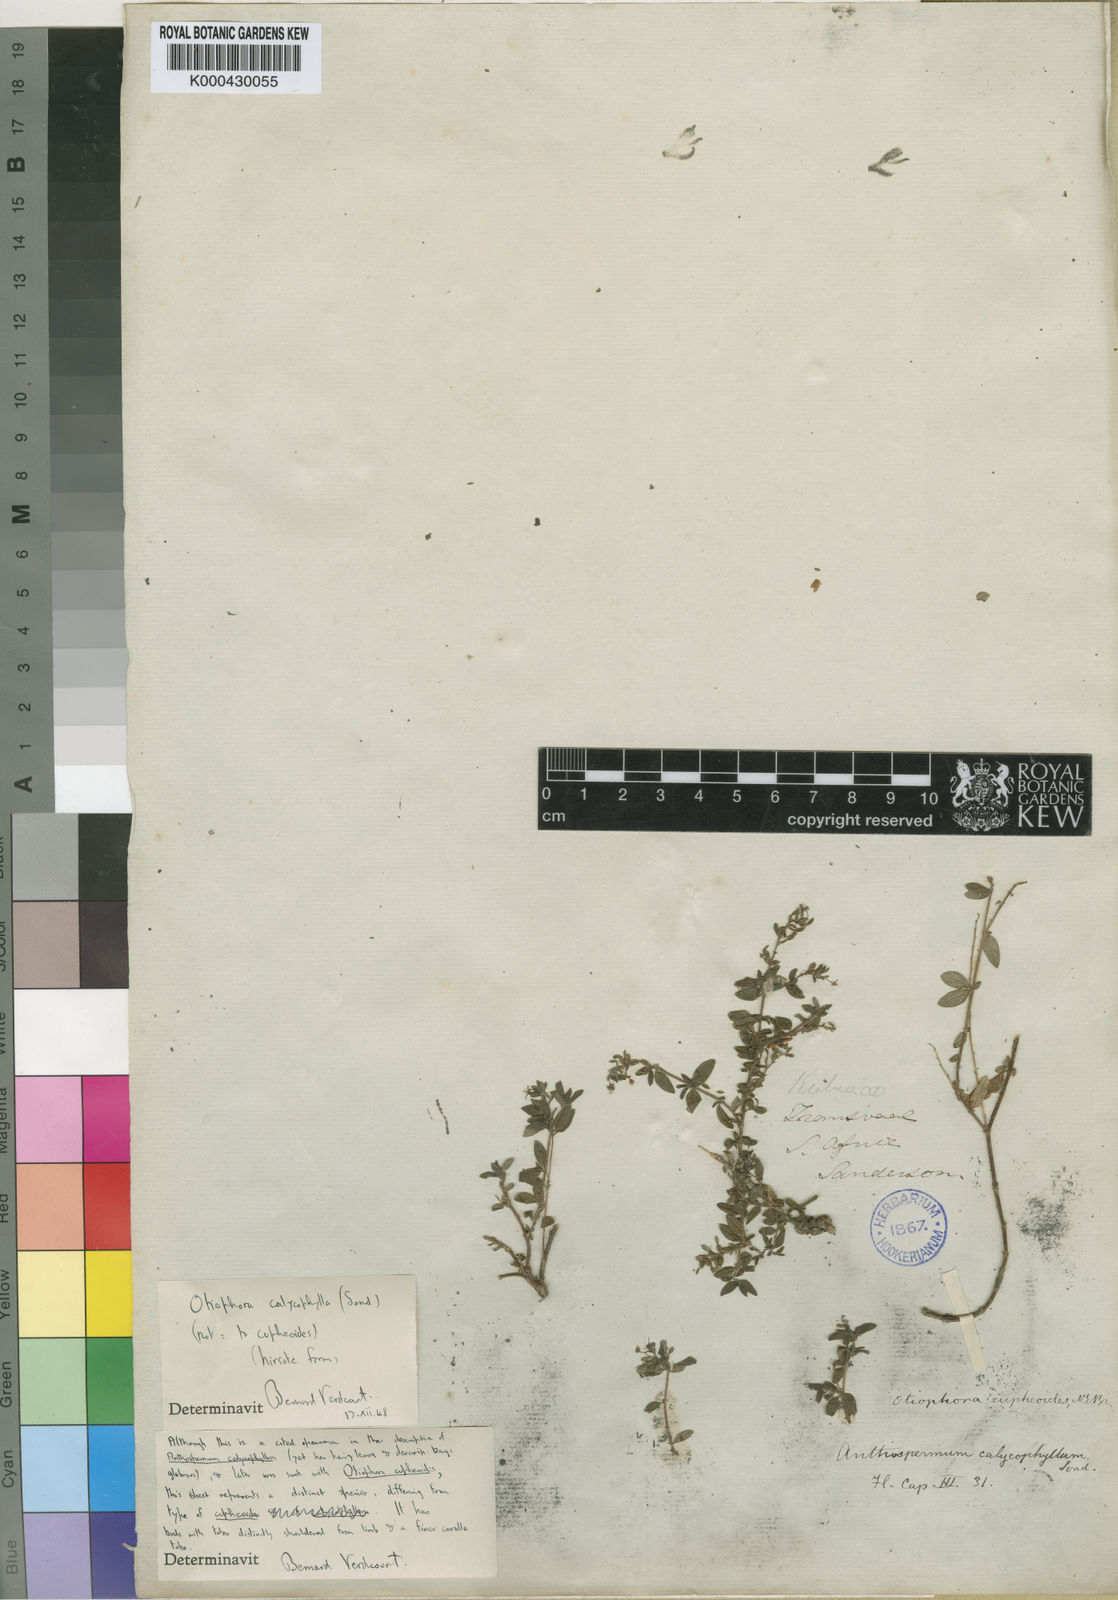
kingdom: Plantae
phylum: Tracheophyta
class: Magnoliopsida
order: Gentianales
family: Rubiaceae
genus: Otiophora
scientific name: Otiophora calycophylla
